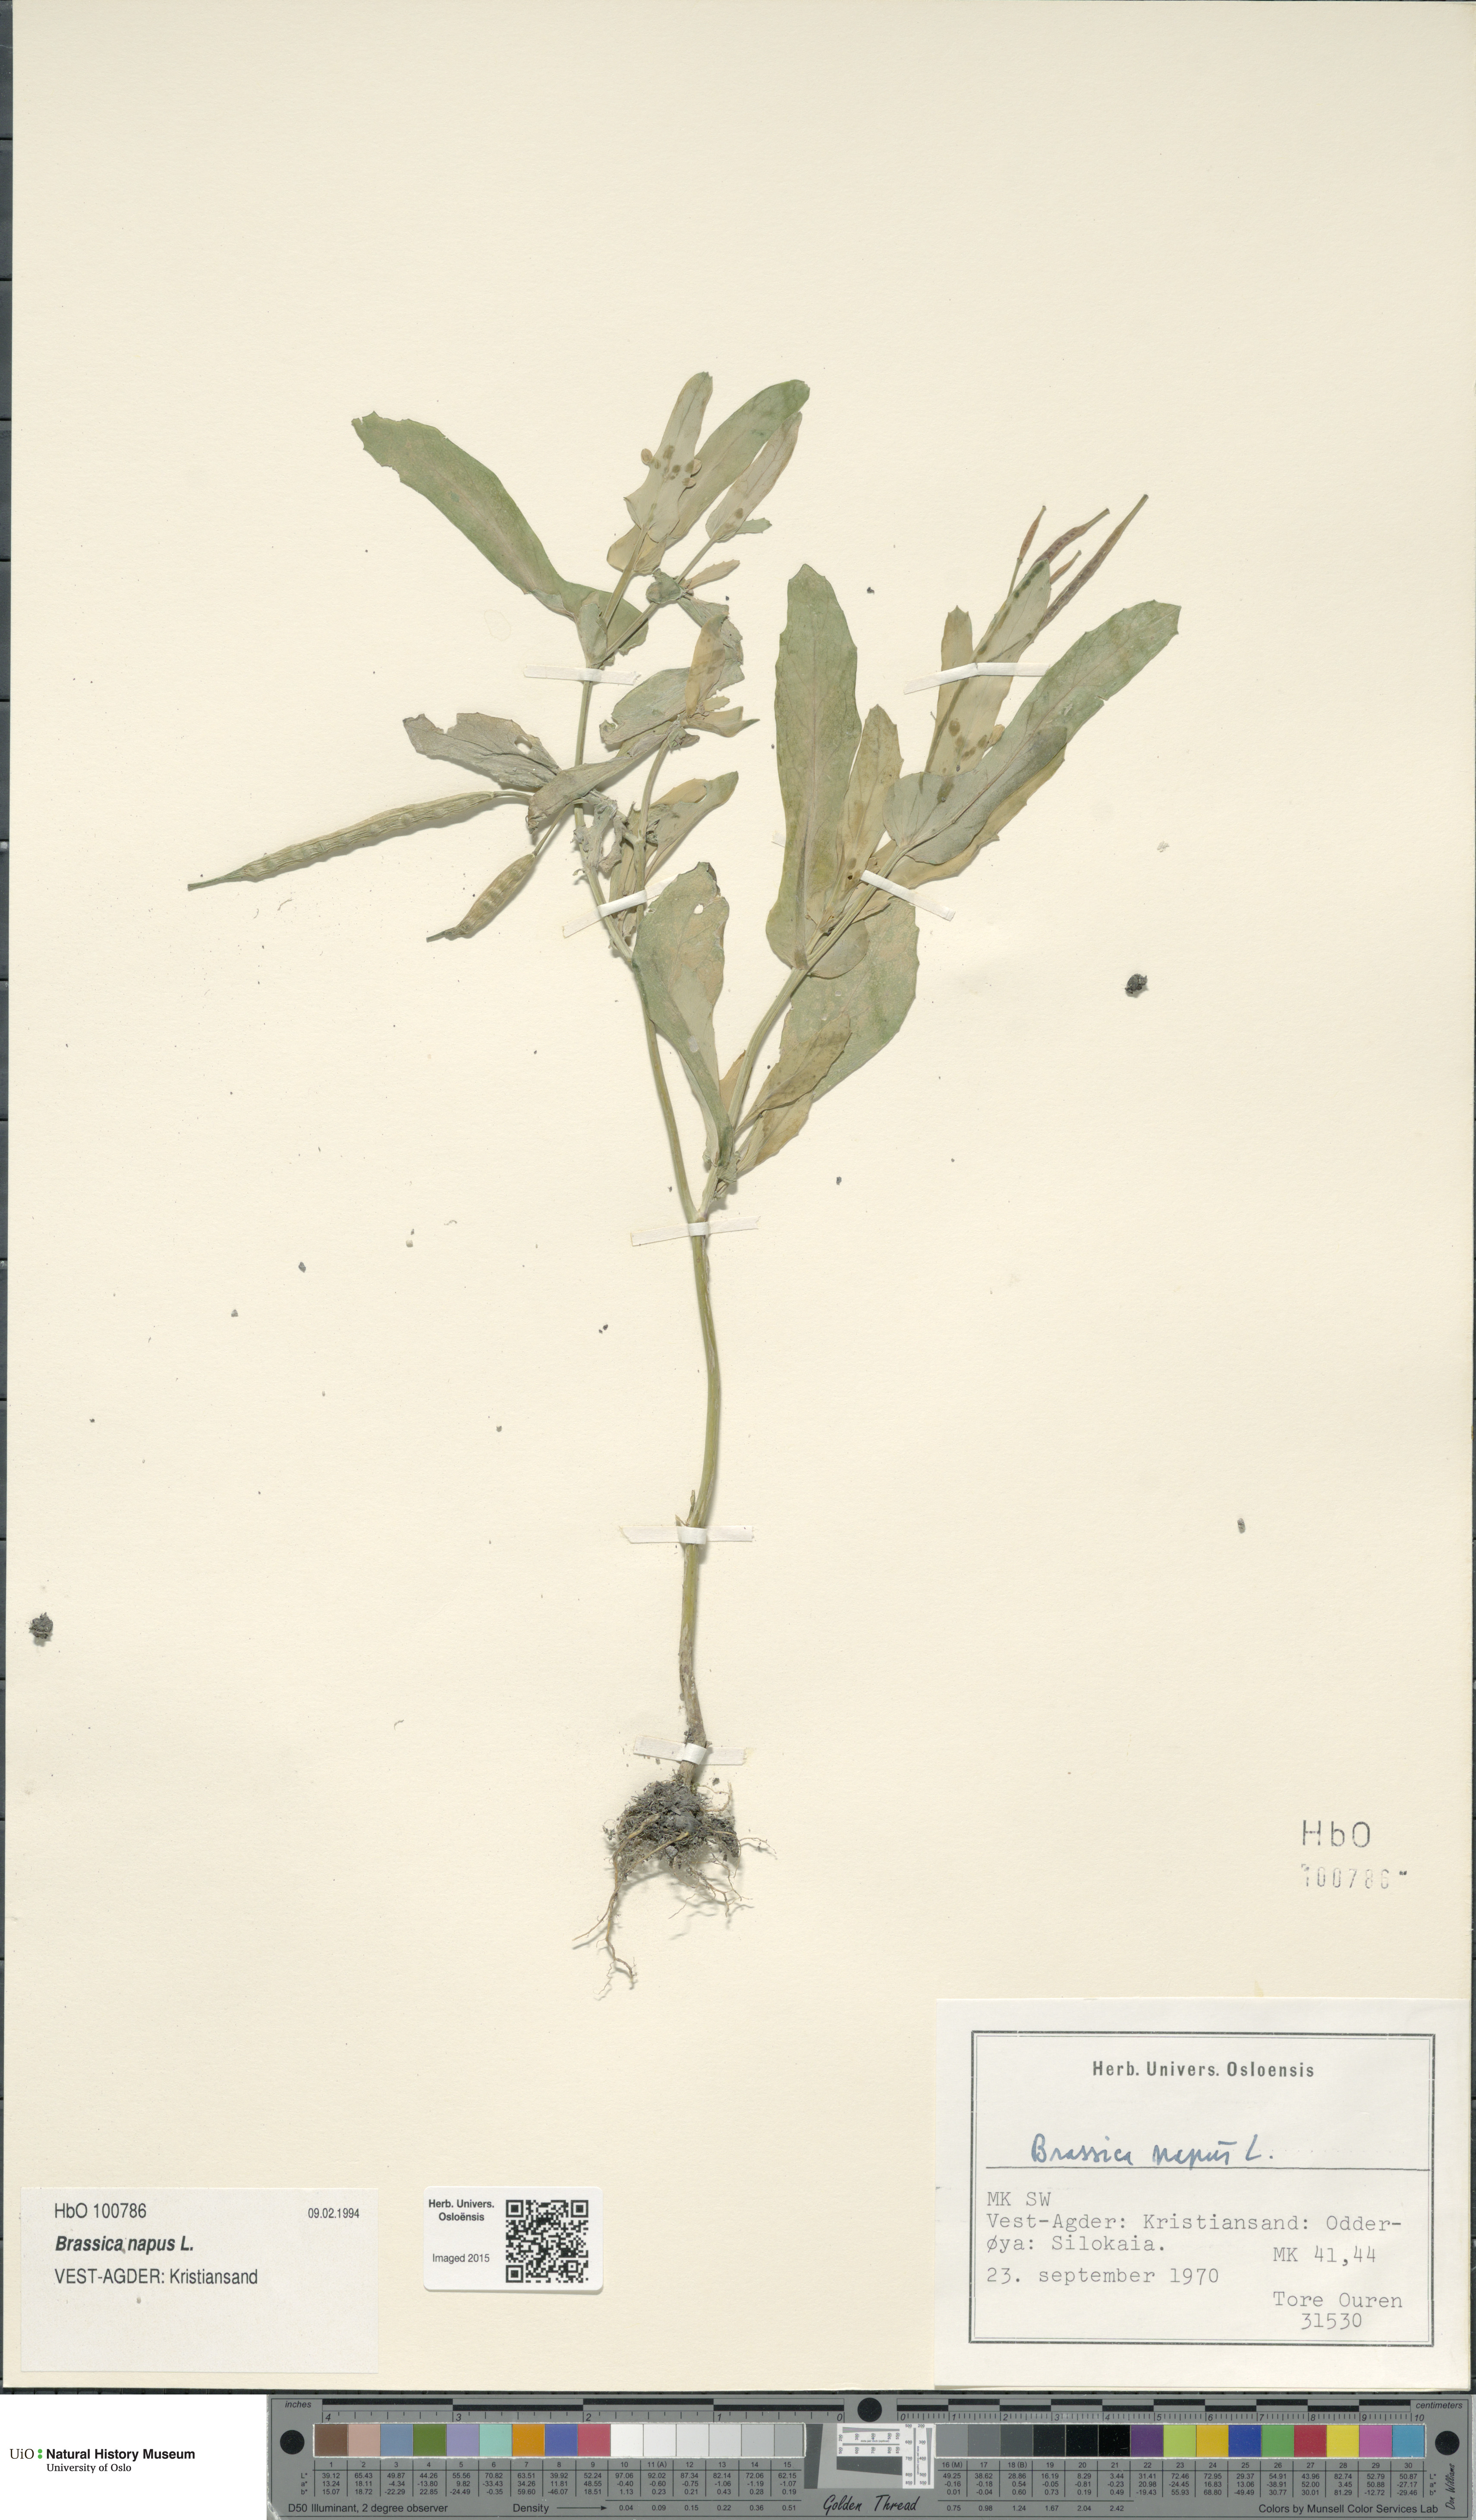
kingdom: Plantae
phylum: Tracheophyta
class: Magnoliopsida
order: Brassicales
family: Brassicaceae
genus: Brassica
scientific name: Brassica napus
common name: Rape
